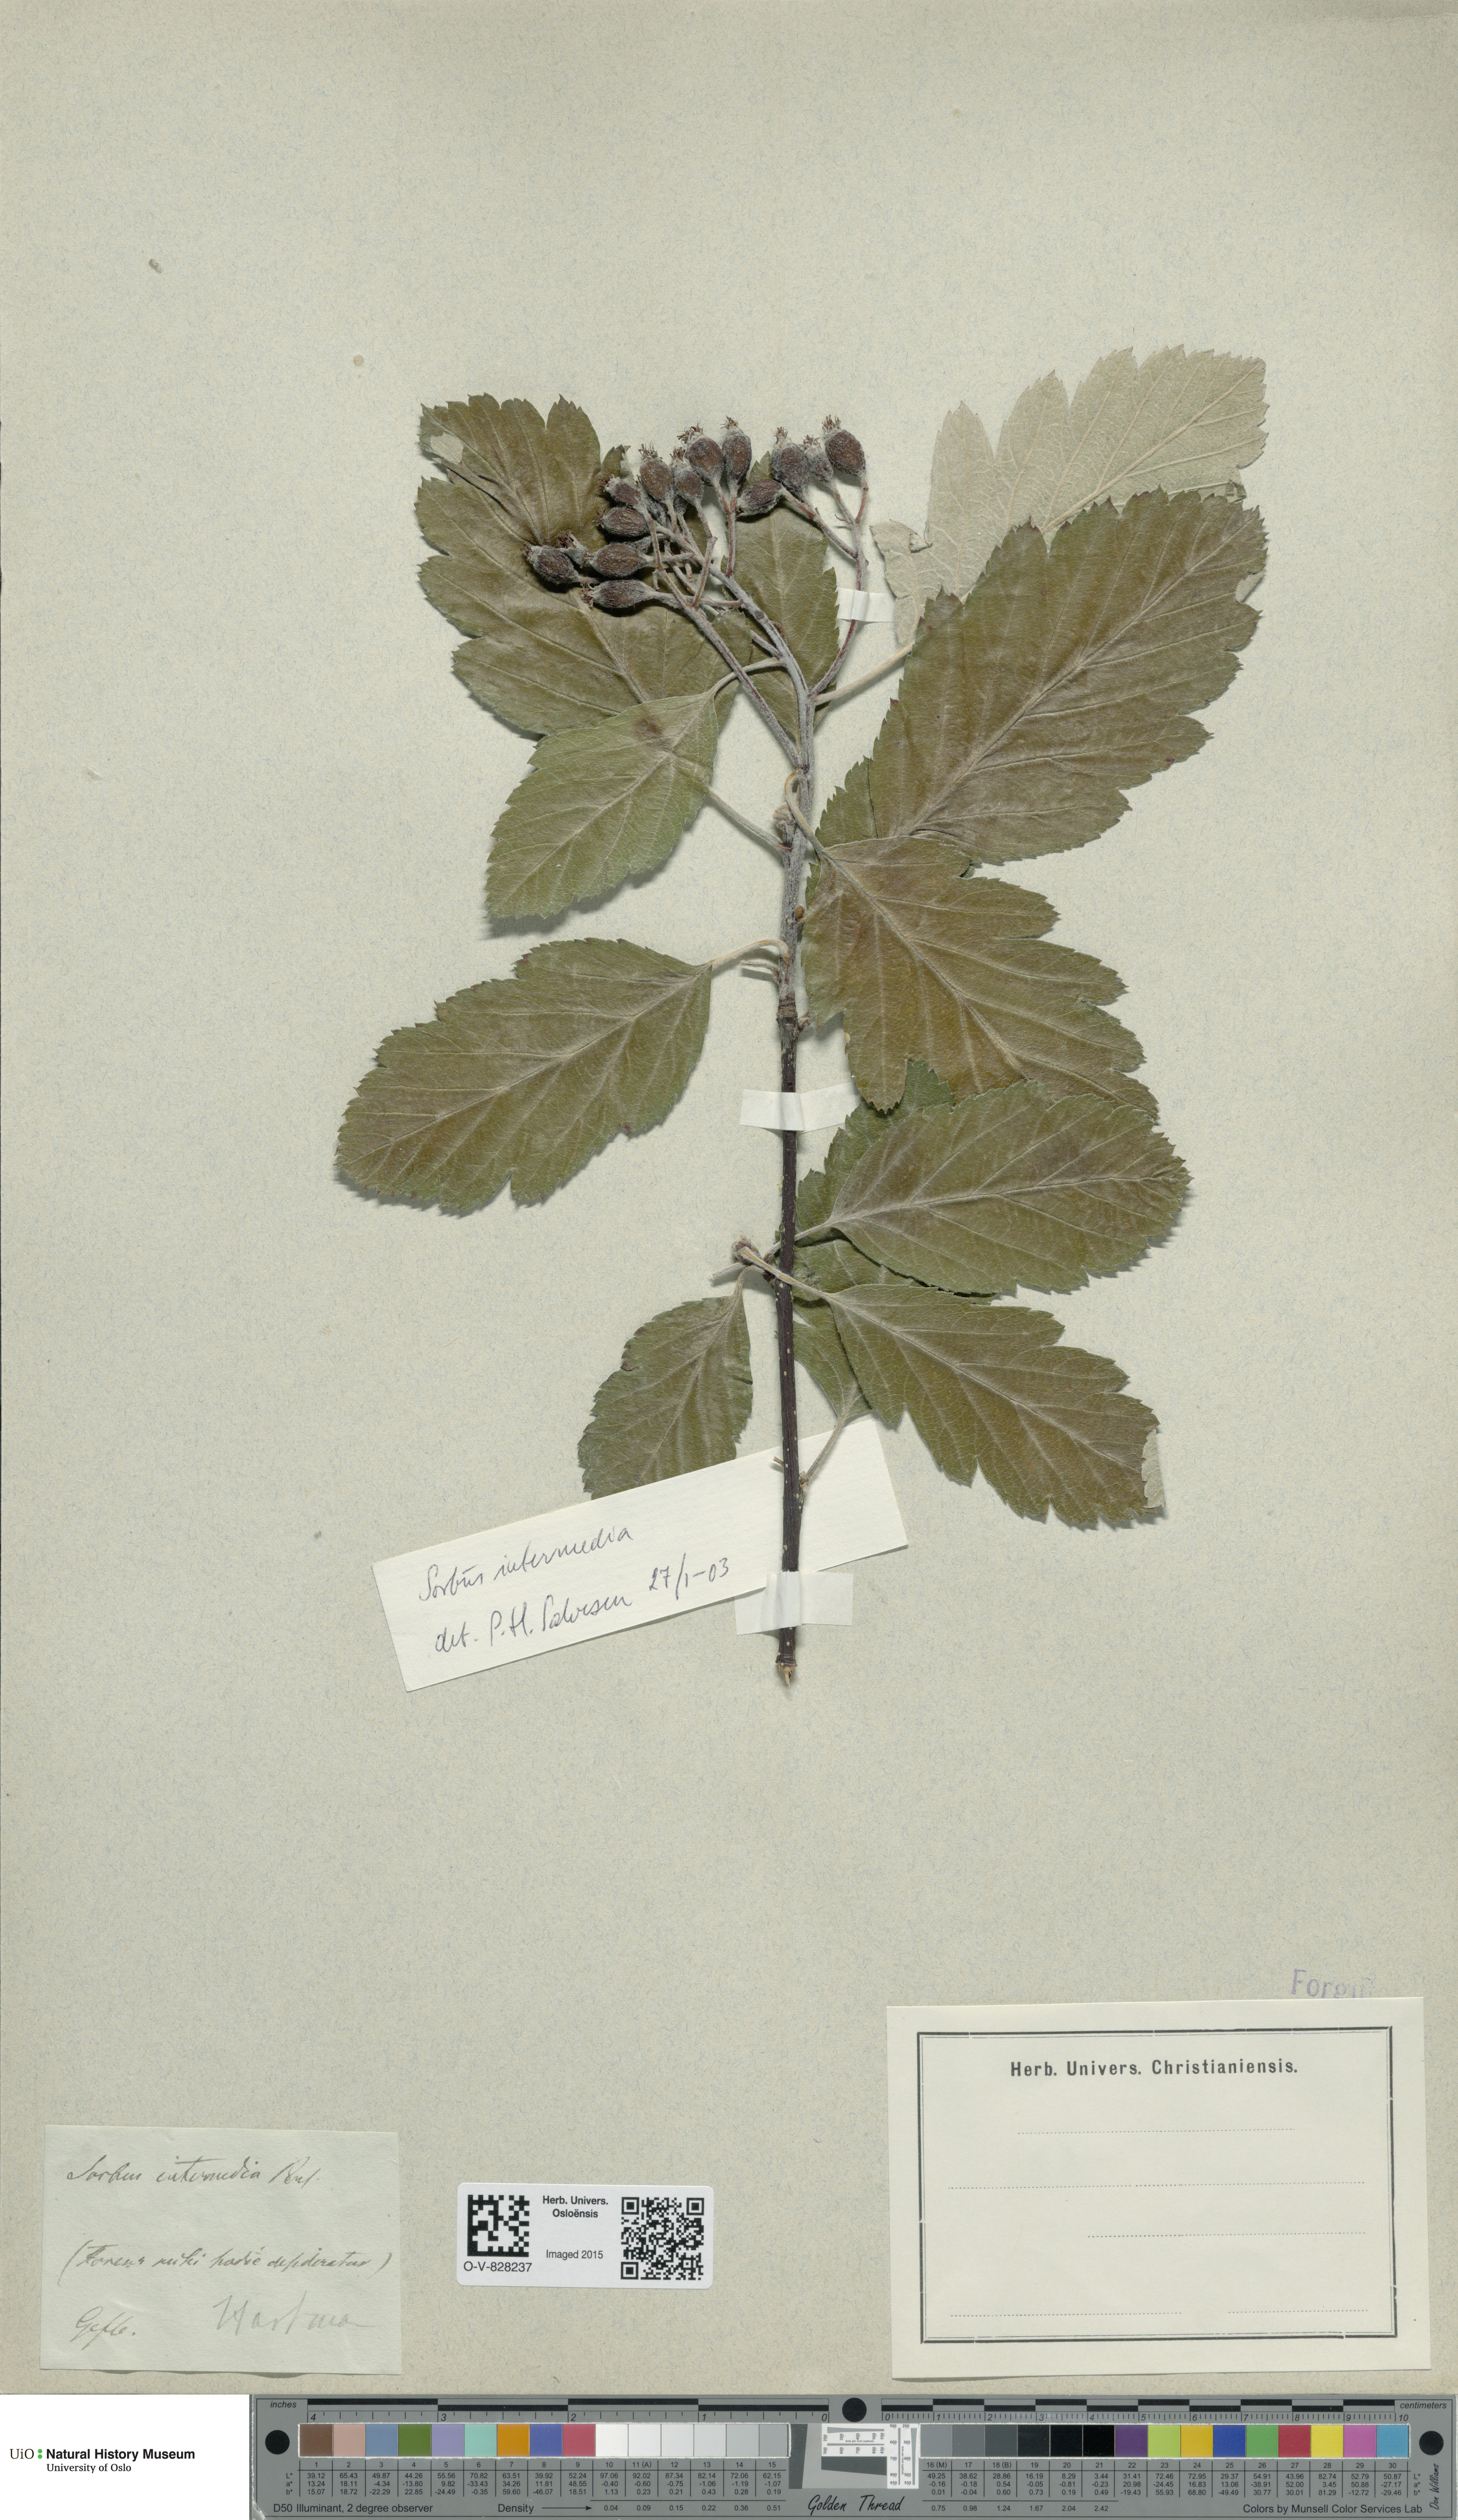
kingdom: Plantae
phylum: Tracheophyta
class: Magnoliopsida
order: Rosales
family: Rosaceae
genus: Scandosorbus
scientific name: Scandosorbus intermedia
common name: Swedish whitebeam
